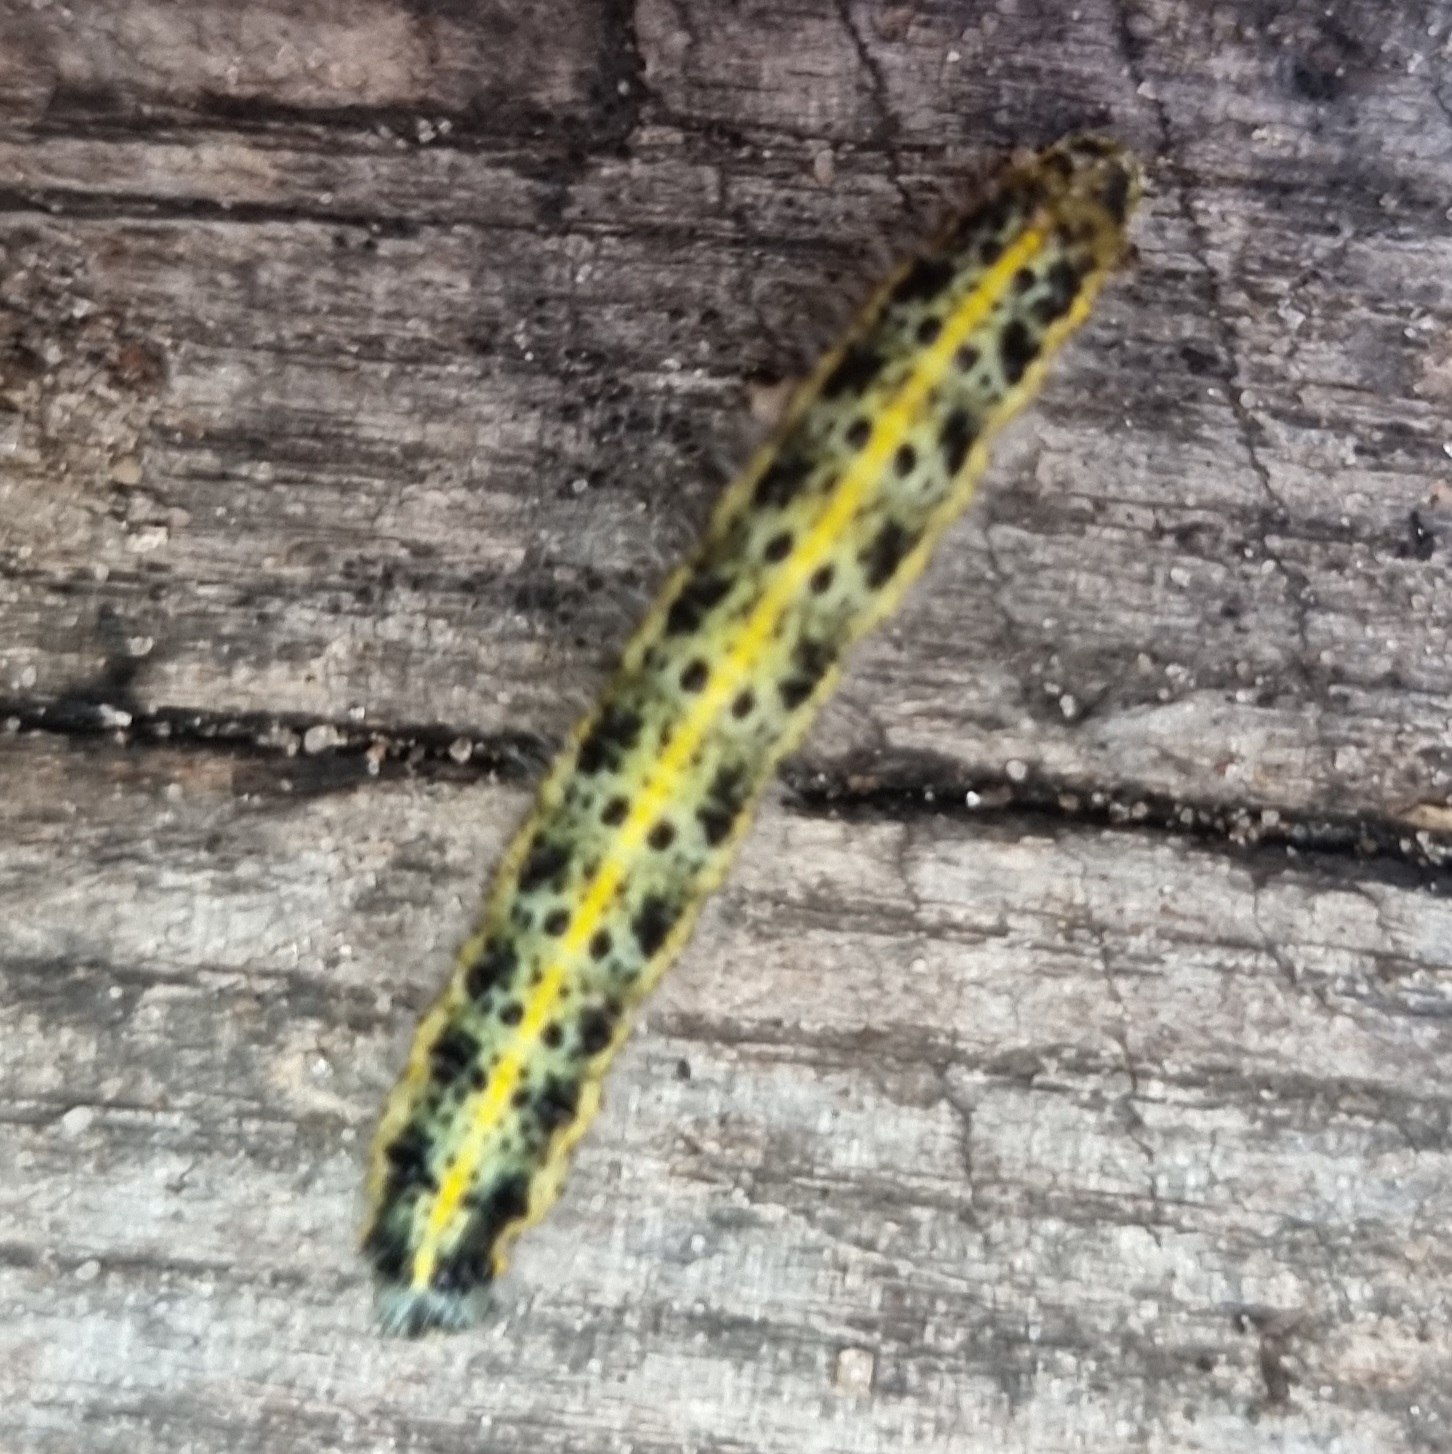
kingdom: Animalia
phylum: Arthropoda
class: Insecta
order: Lepidoptera
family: Pieridae
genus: Pieris
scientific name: Pieris brassicae
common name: Stor kålsommerfugl
